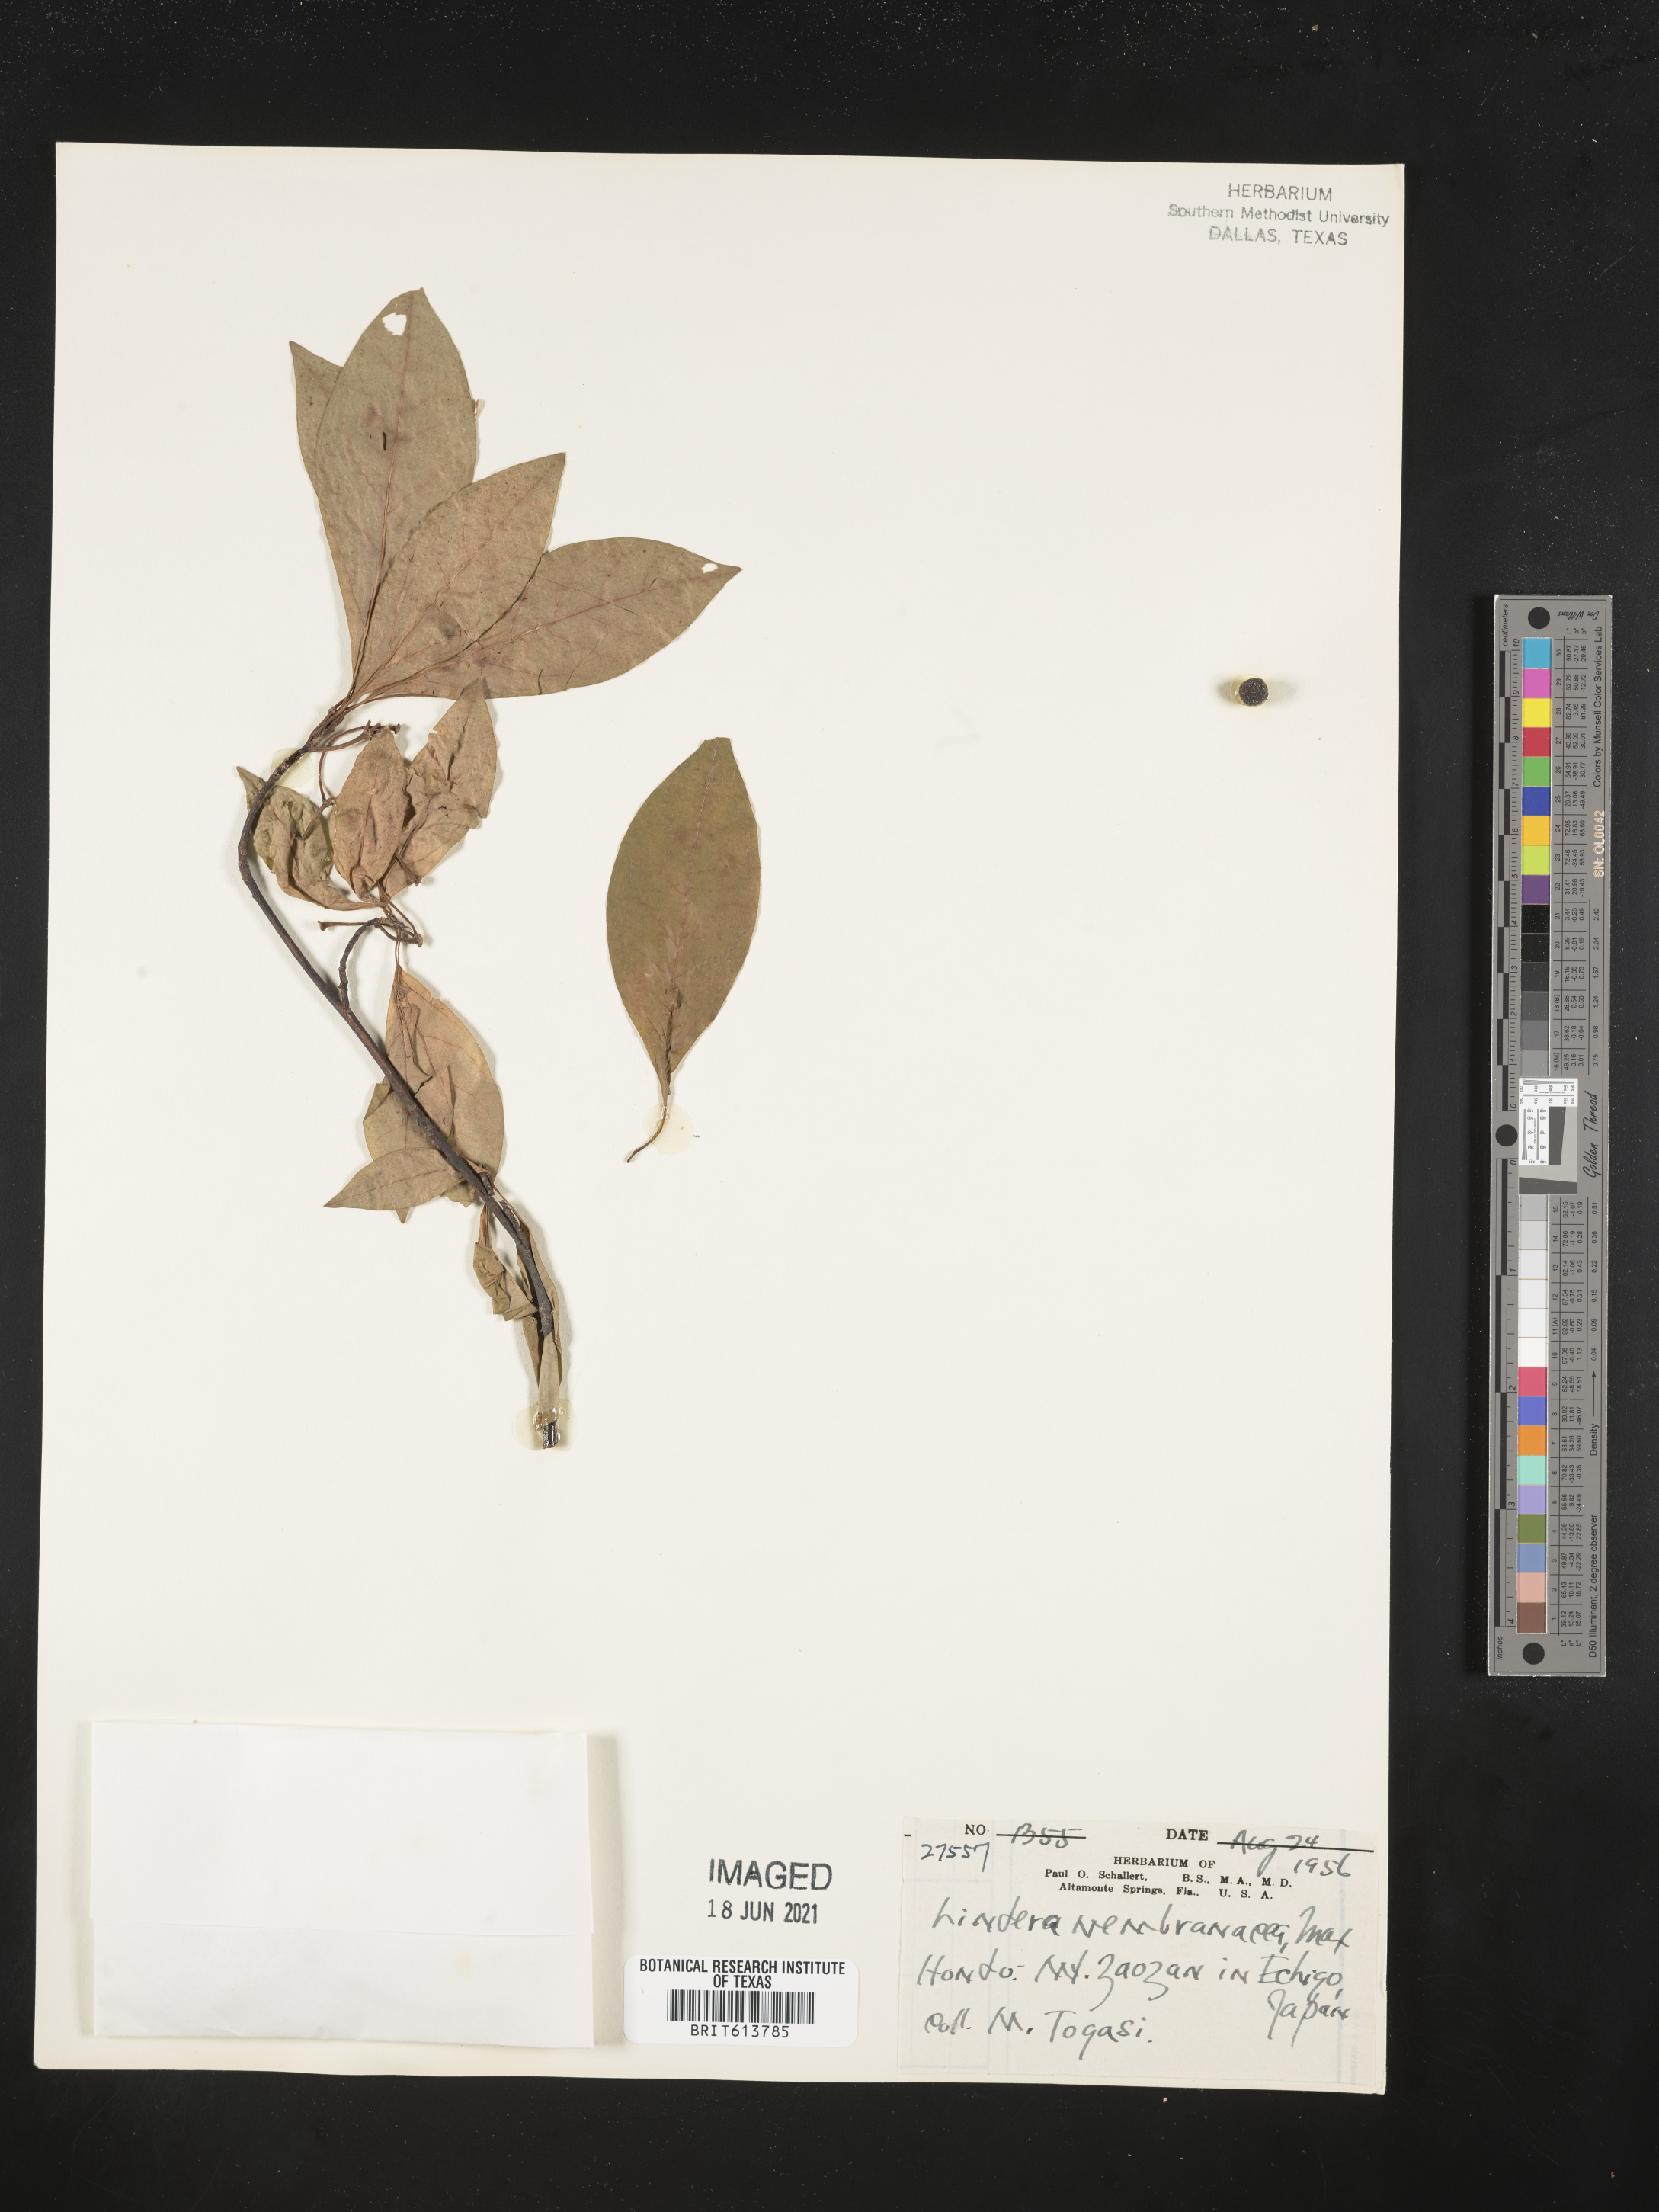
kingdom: Plantae
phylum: Tracheophyta
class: Magnoliopsida
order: Laurales
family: Lauraceae
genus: Lindera
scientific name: Lindera umbellata
